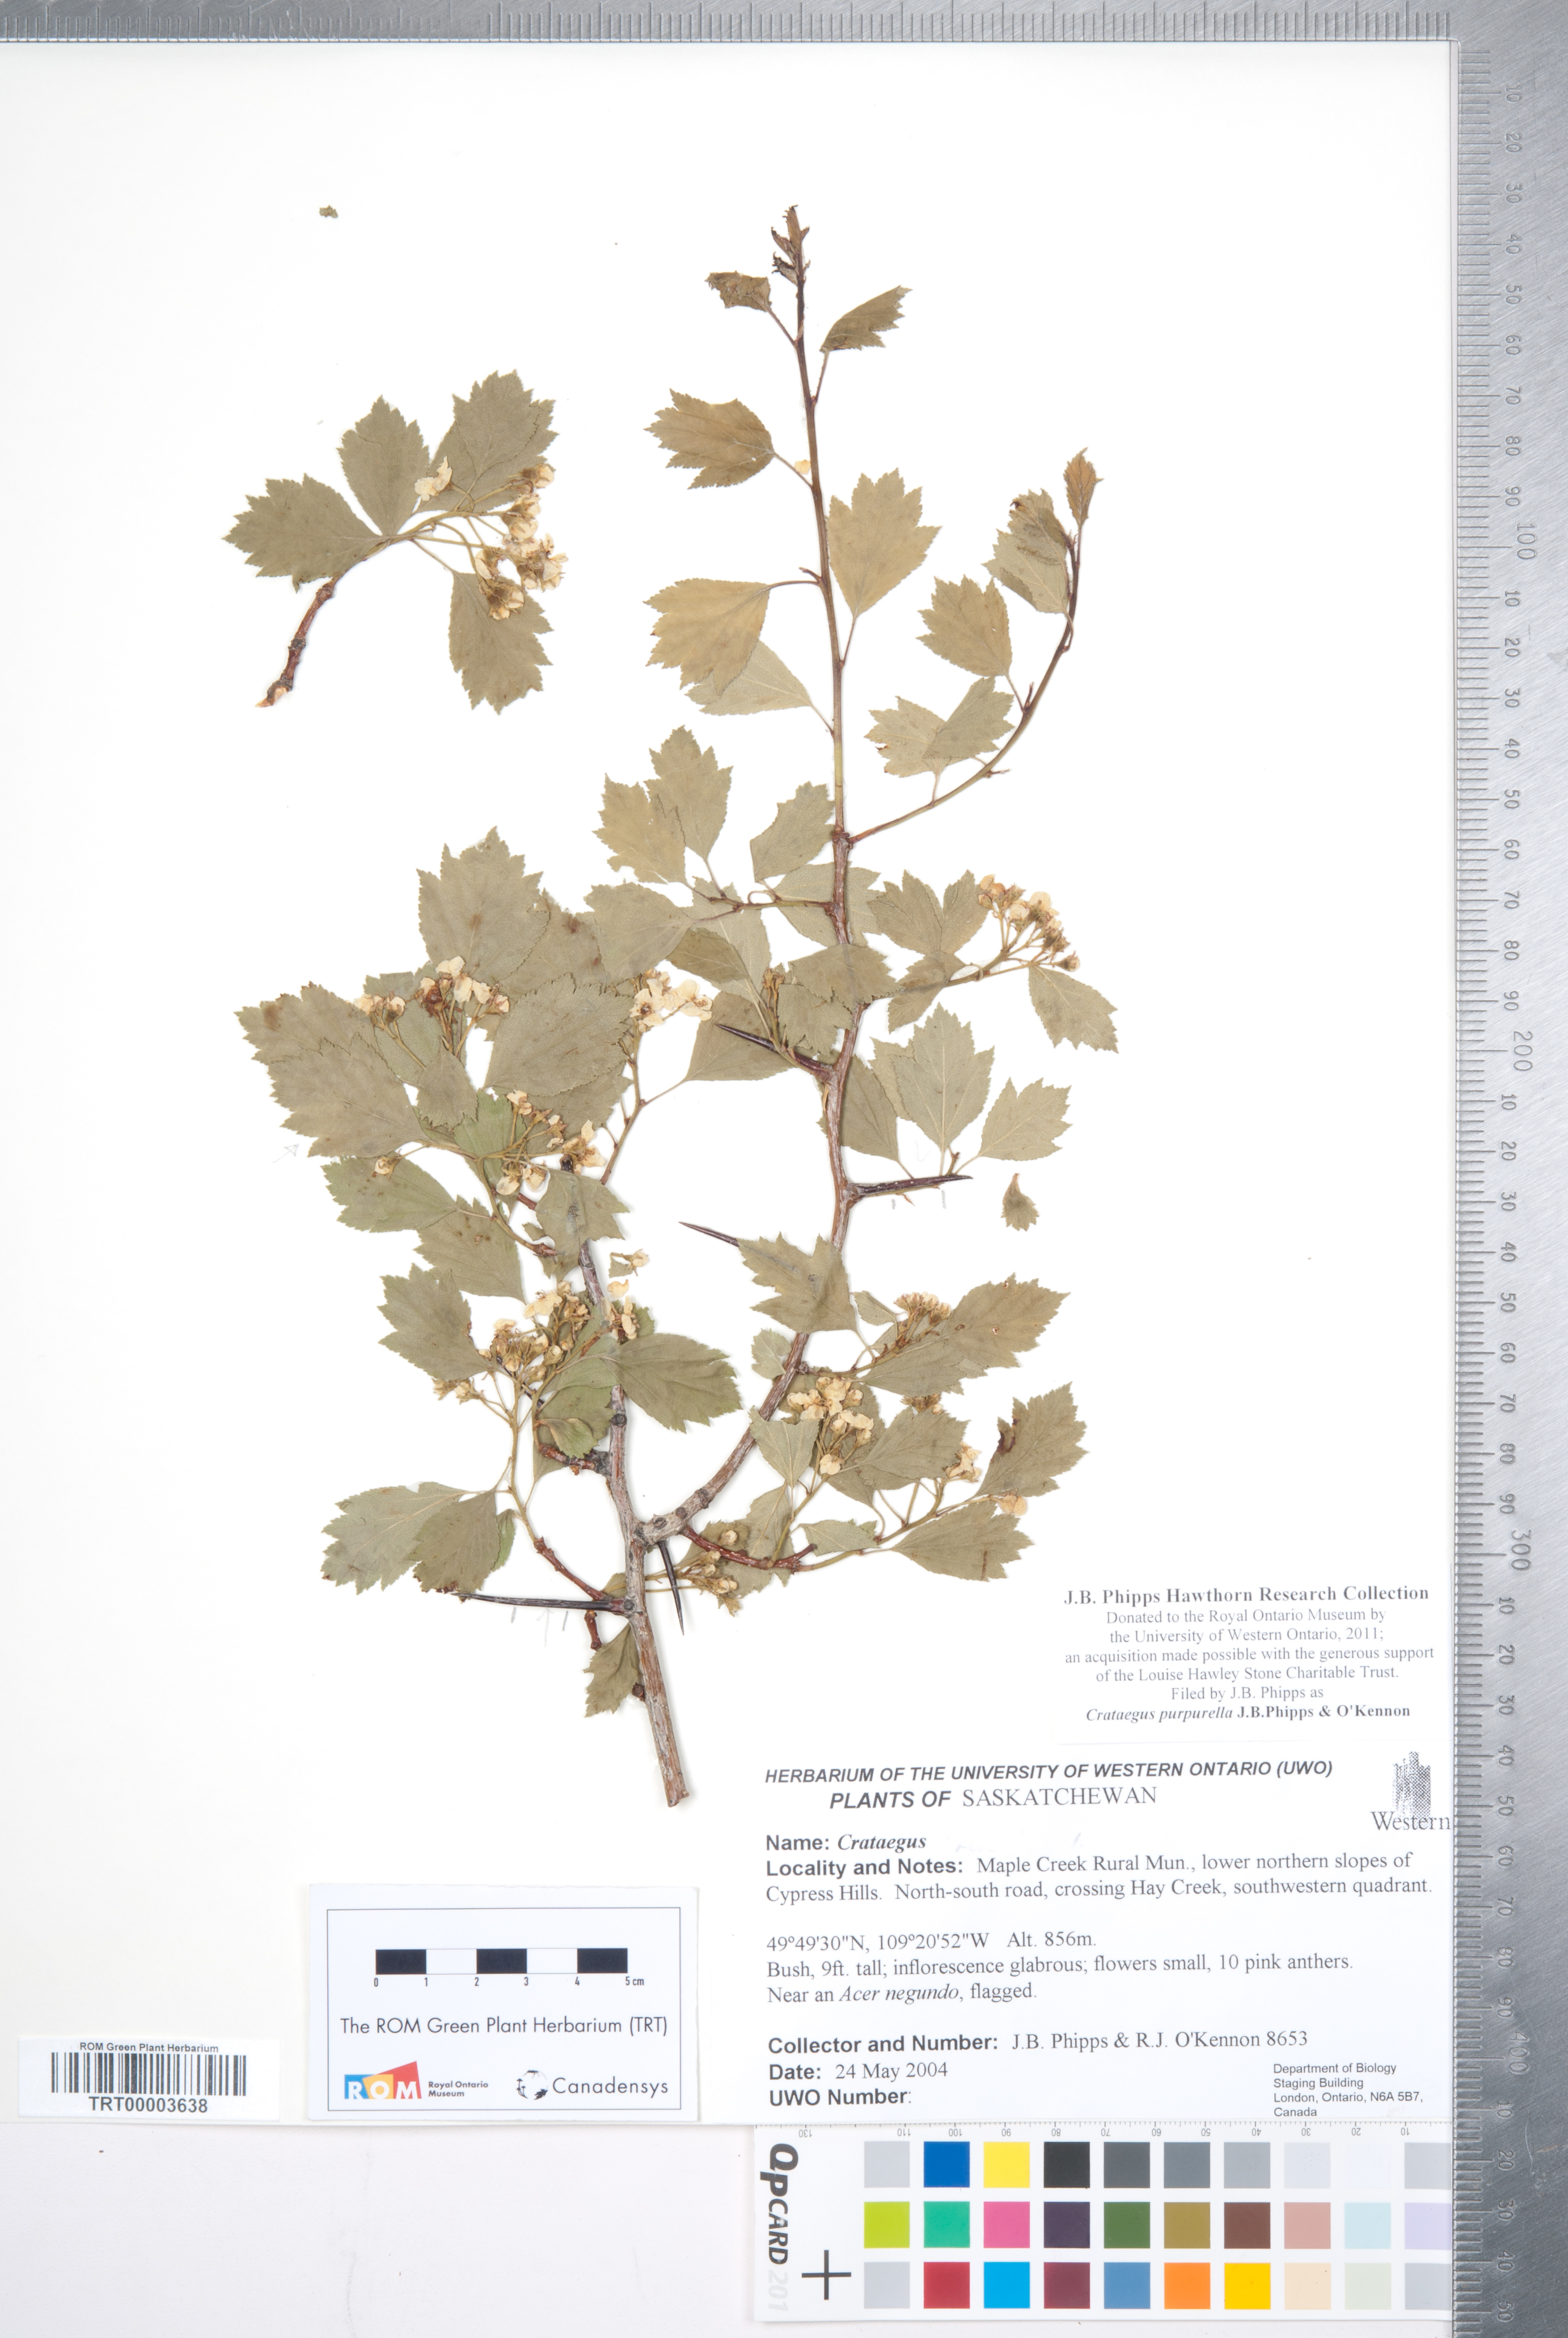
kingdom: Plantae
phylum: Tracheophyta
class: Magnoliopsida
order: Rosales
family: Rosaceae
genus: Crataegus
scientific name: Crataegus purpurella
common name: Loch lomond hawthorn
